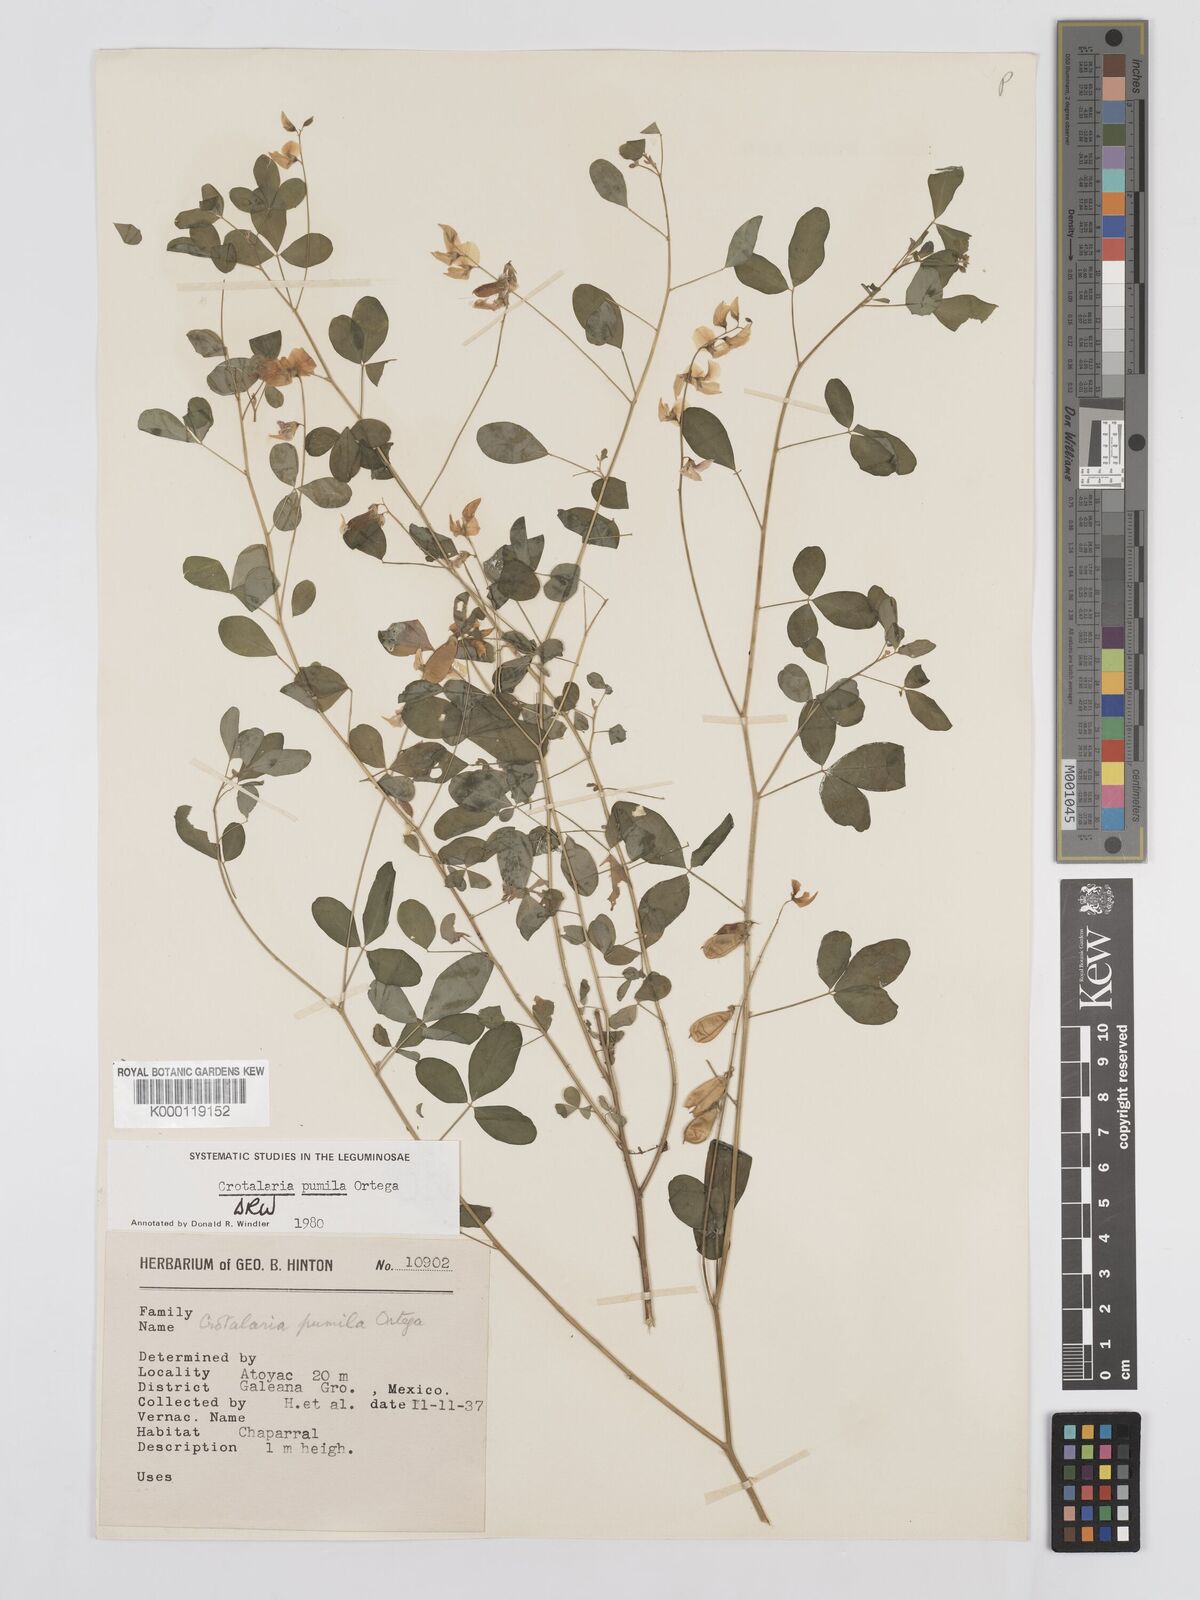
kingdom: Plantae
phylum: Tracheophyta
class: Magnoliopsida
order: Fabales
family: Fabaceae
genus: Crotalaria
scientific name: Crotalaria pumila
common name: Low rattlebox
